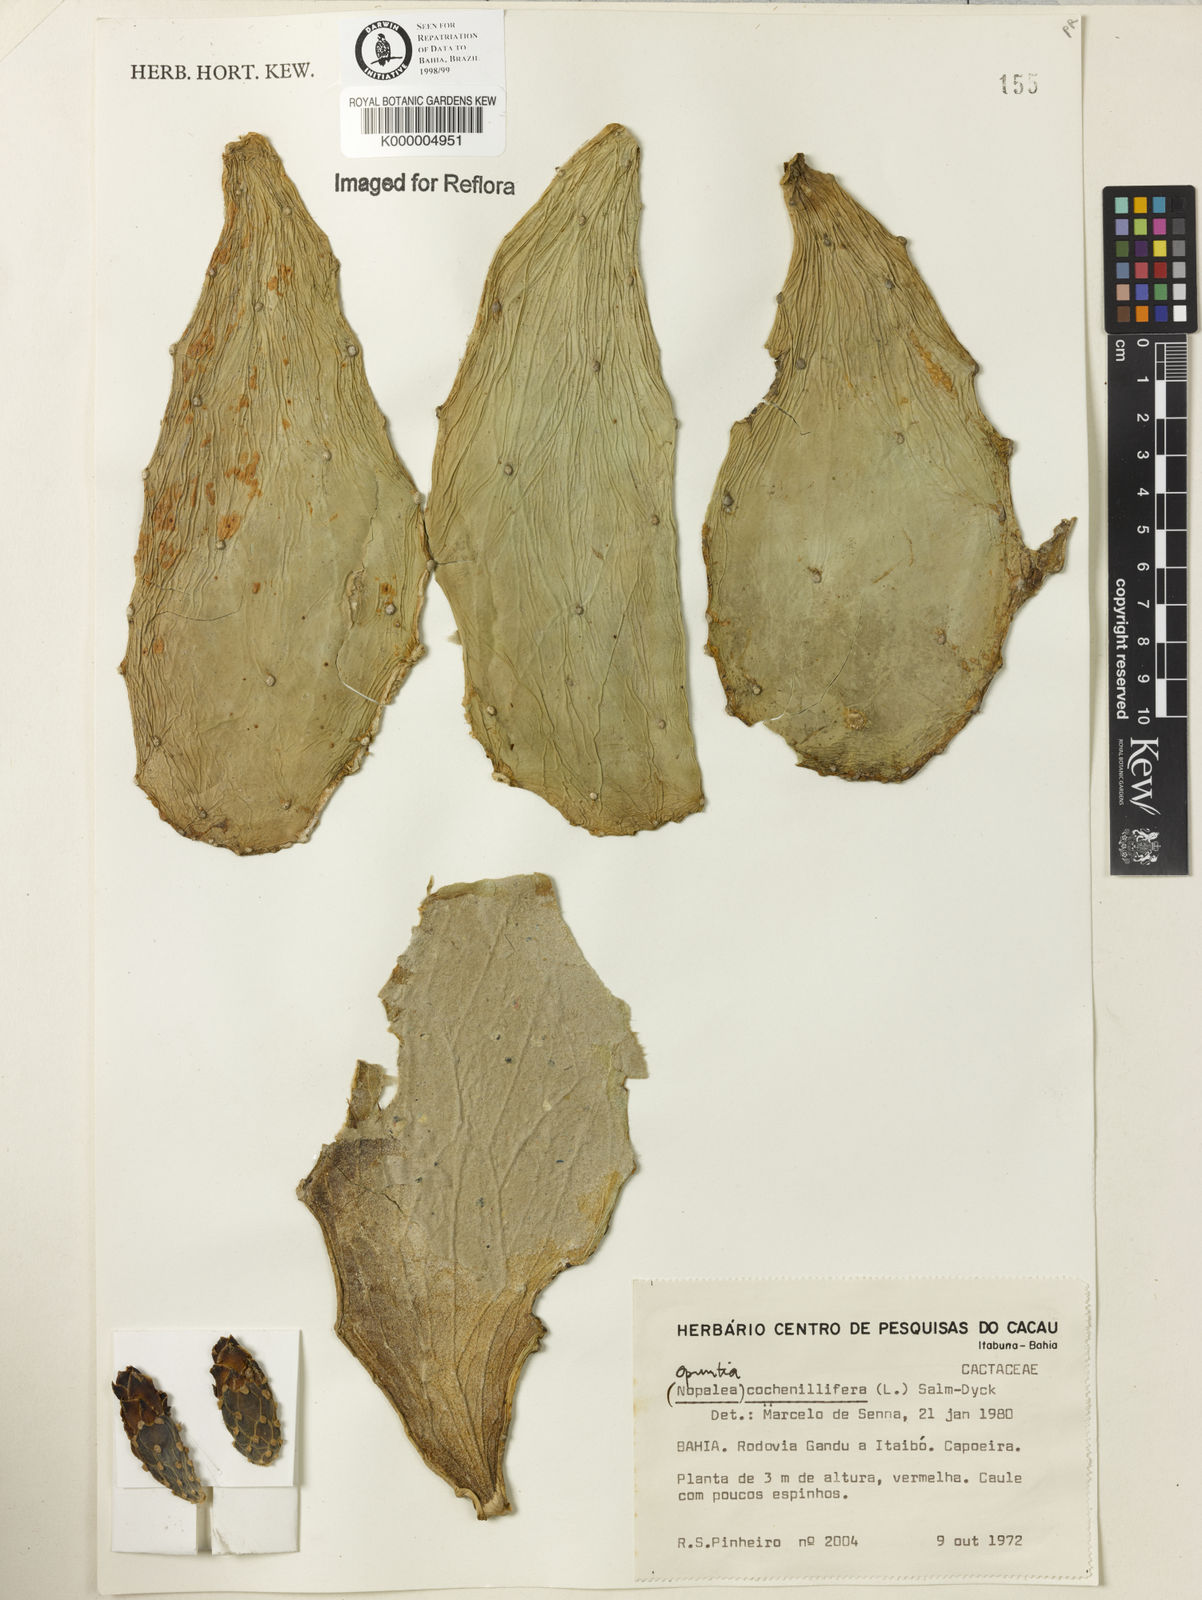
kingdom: Plantae
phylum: Tracheophyta
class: Magnoliopsida
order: Caryophyllales
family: Cactaceae
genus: Pereskia
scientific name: Pereskia stenantha
